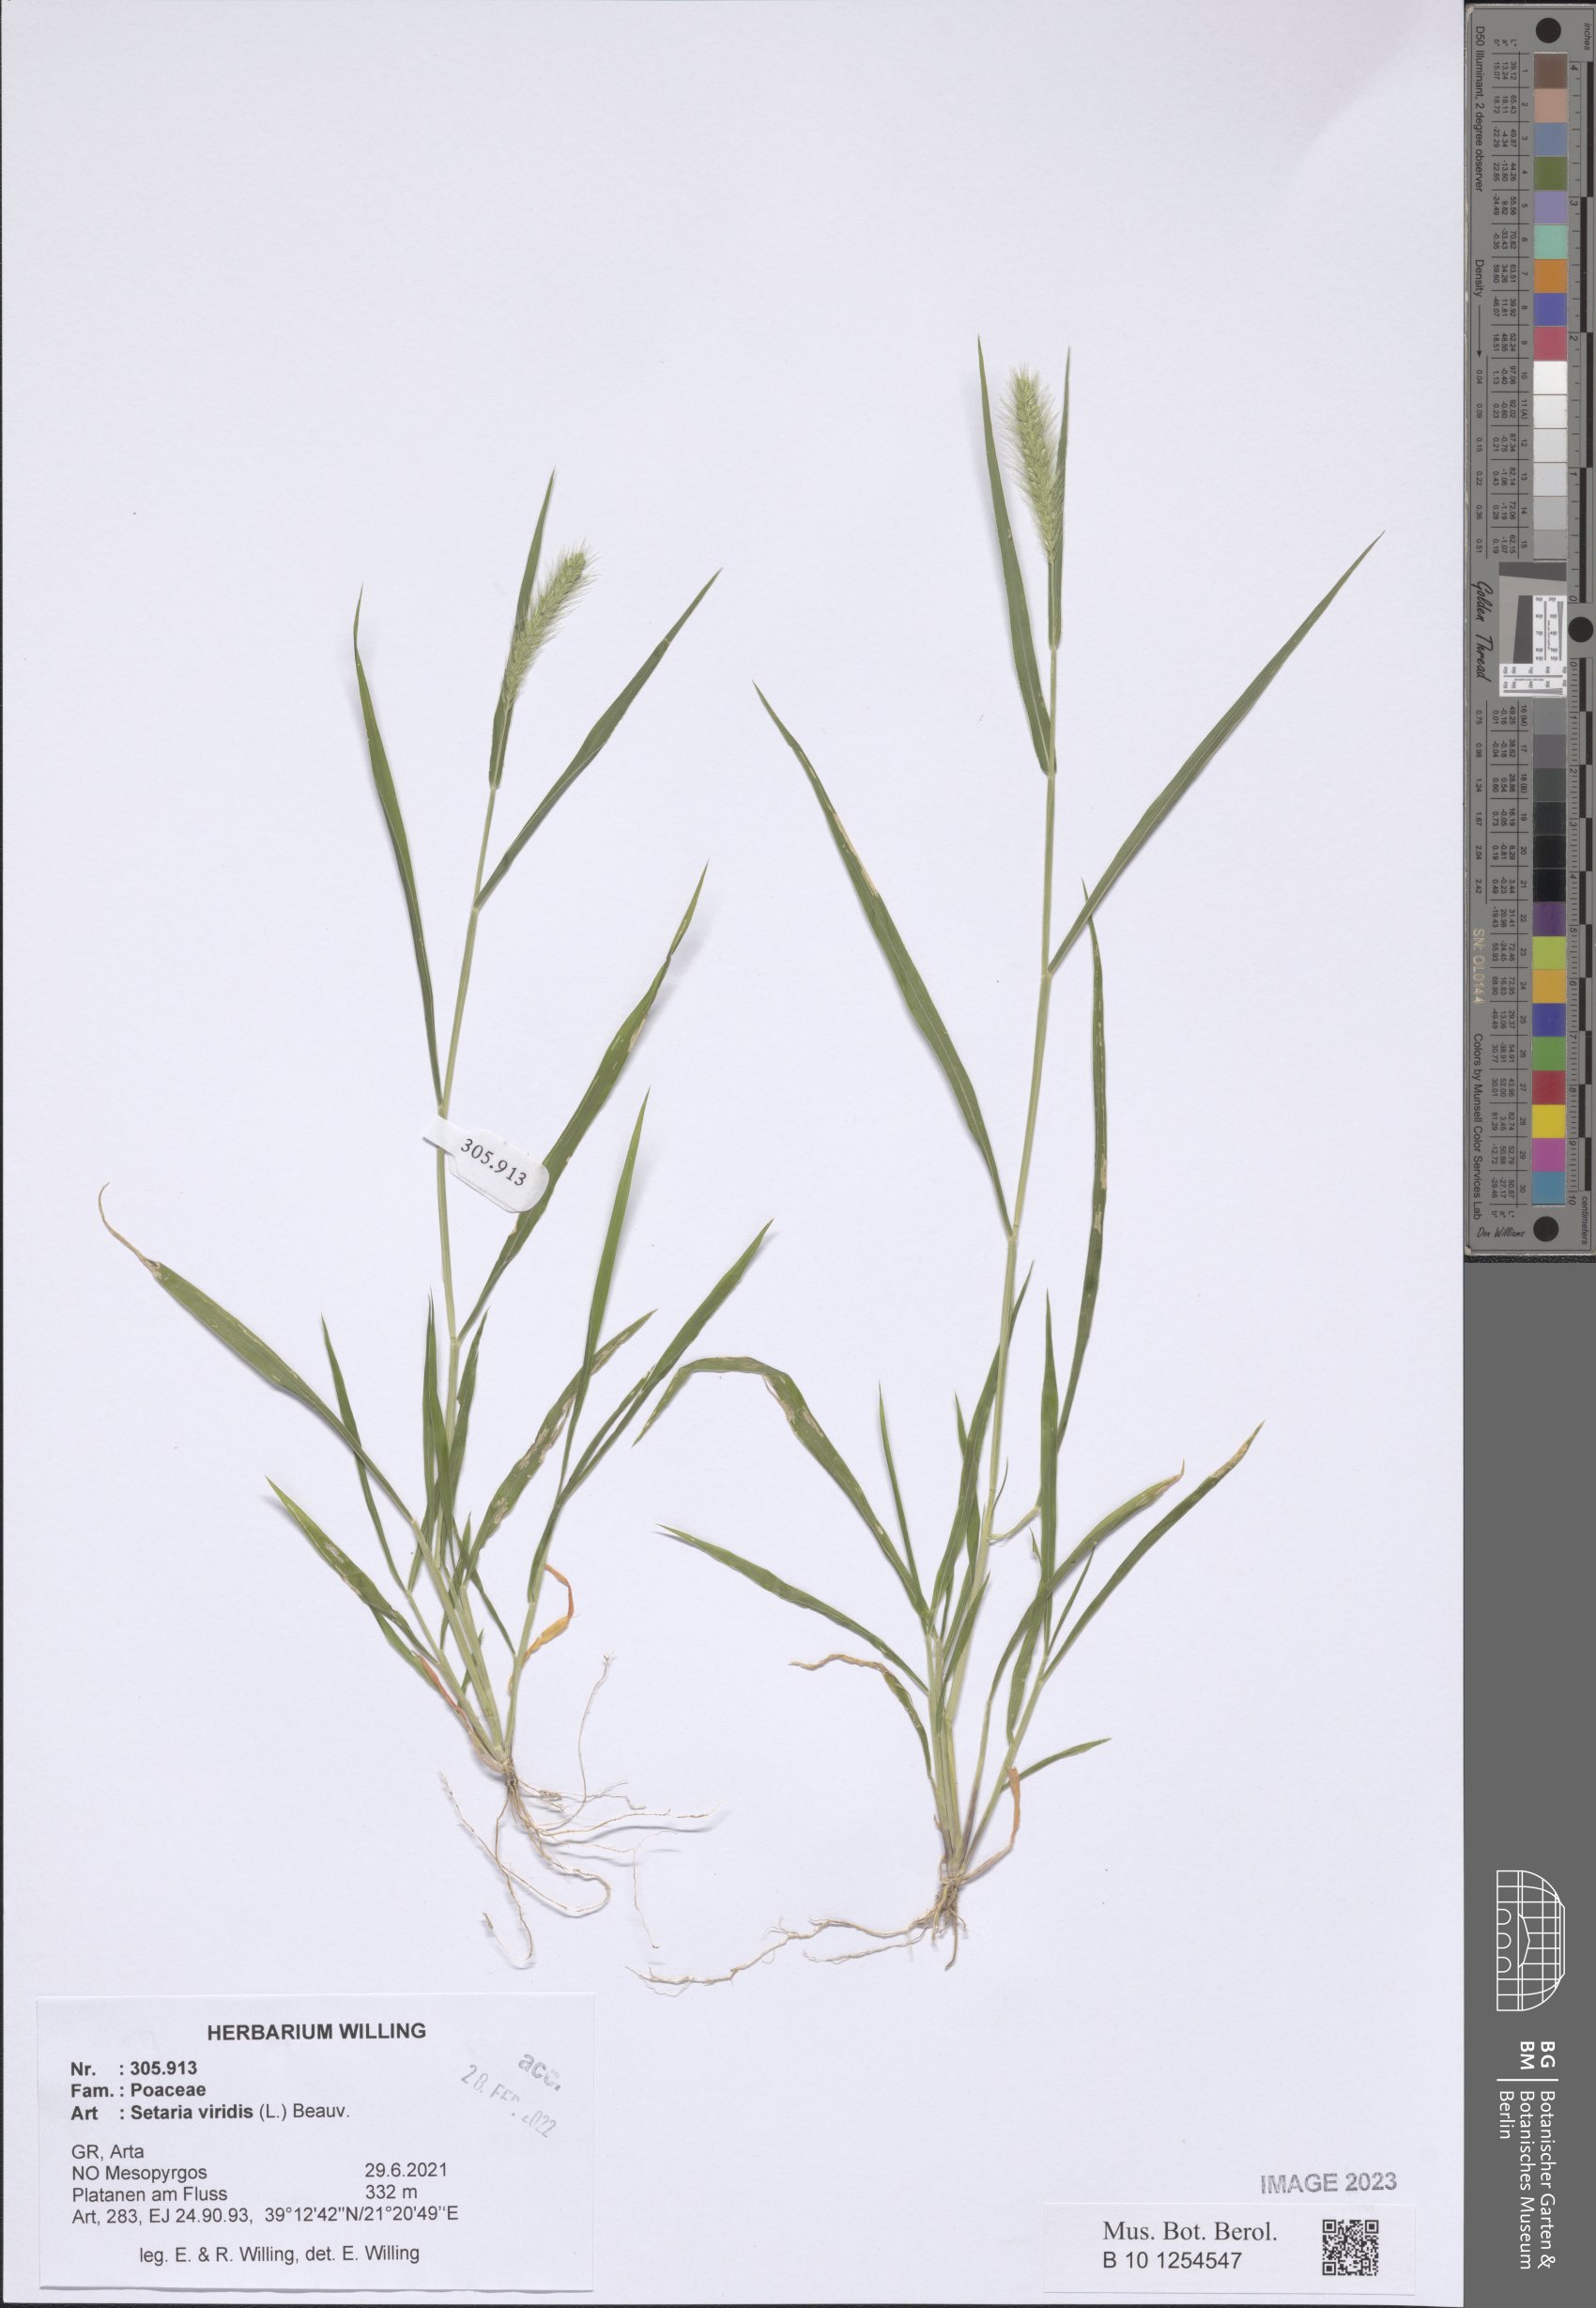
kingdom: Plantae
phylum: Tracheophyta
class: Liliopsida
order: Poales
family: Poaceae
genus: Setaria
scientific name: Setaria viridis
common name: Green bristlegrass
